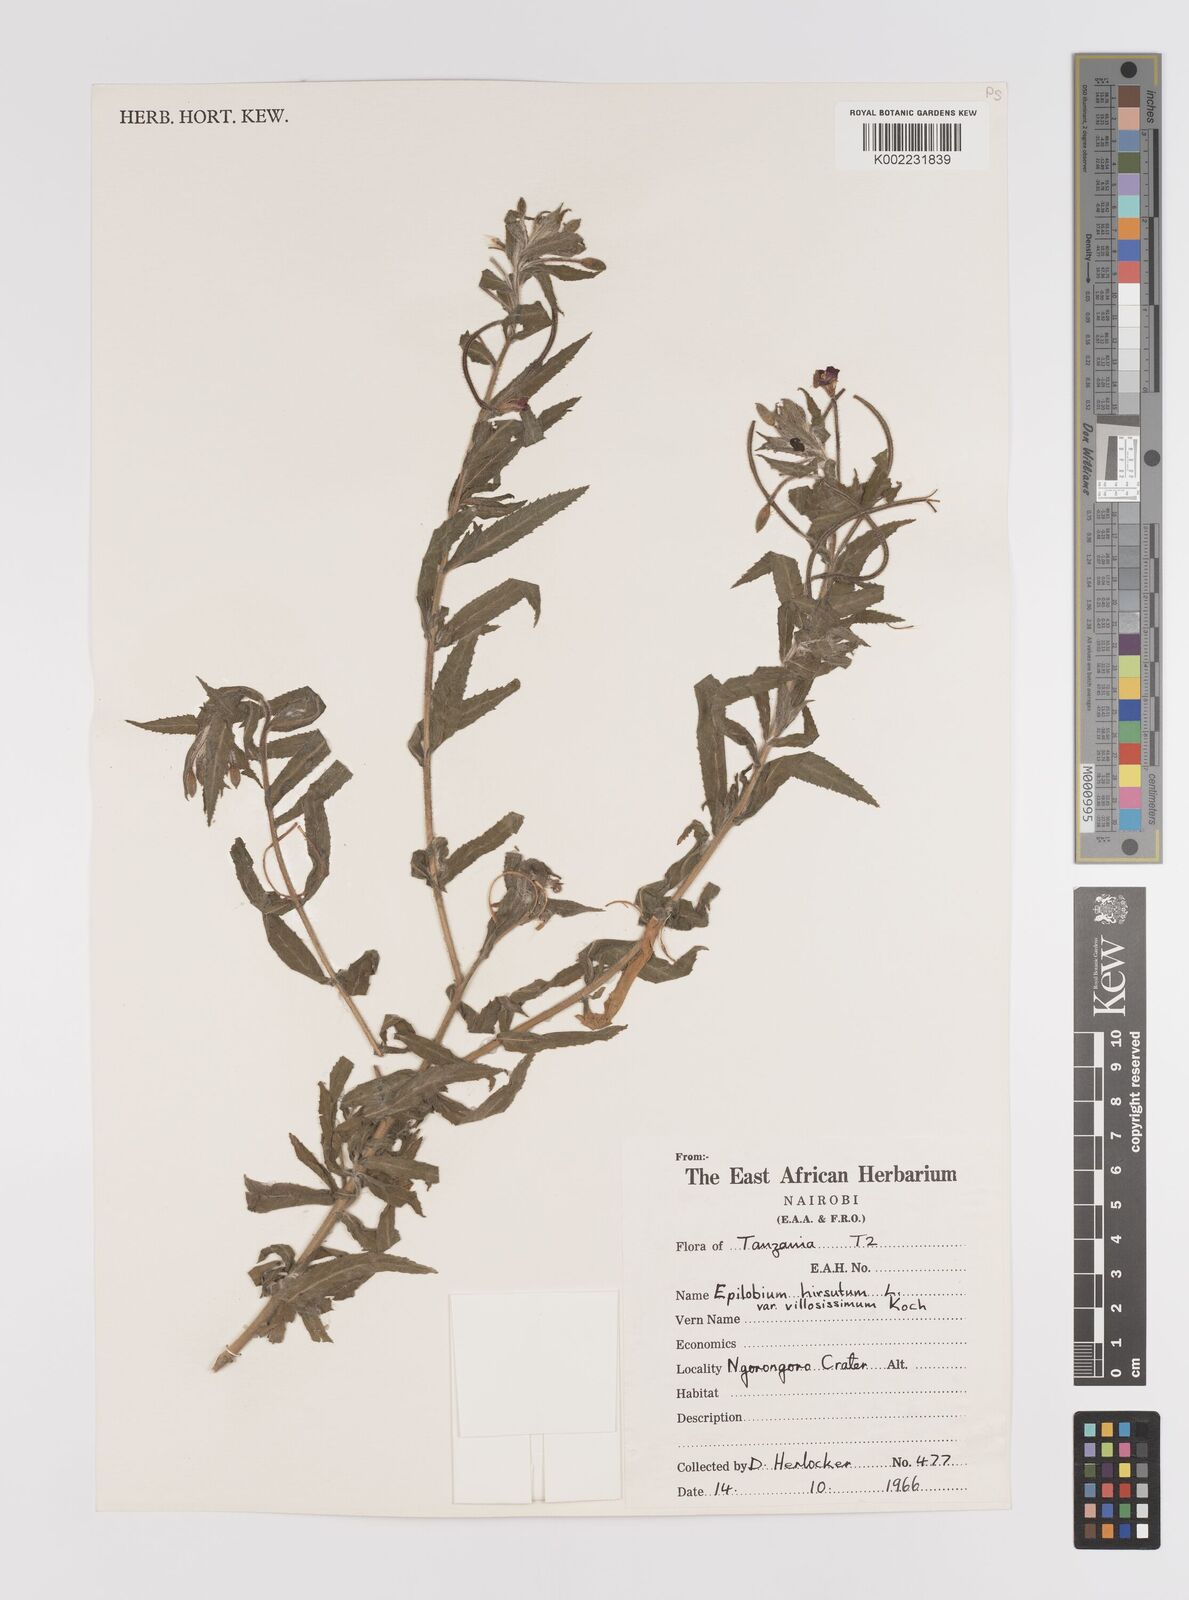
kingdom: Plantae
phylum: Tracheophyta
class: Magnoliopsida
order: Myrtales
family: Onagraceae
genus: Epilobium
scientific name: Epilobium hirsutum
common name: Great willowherb
